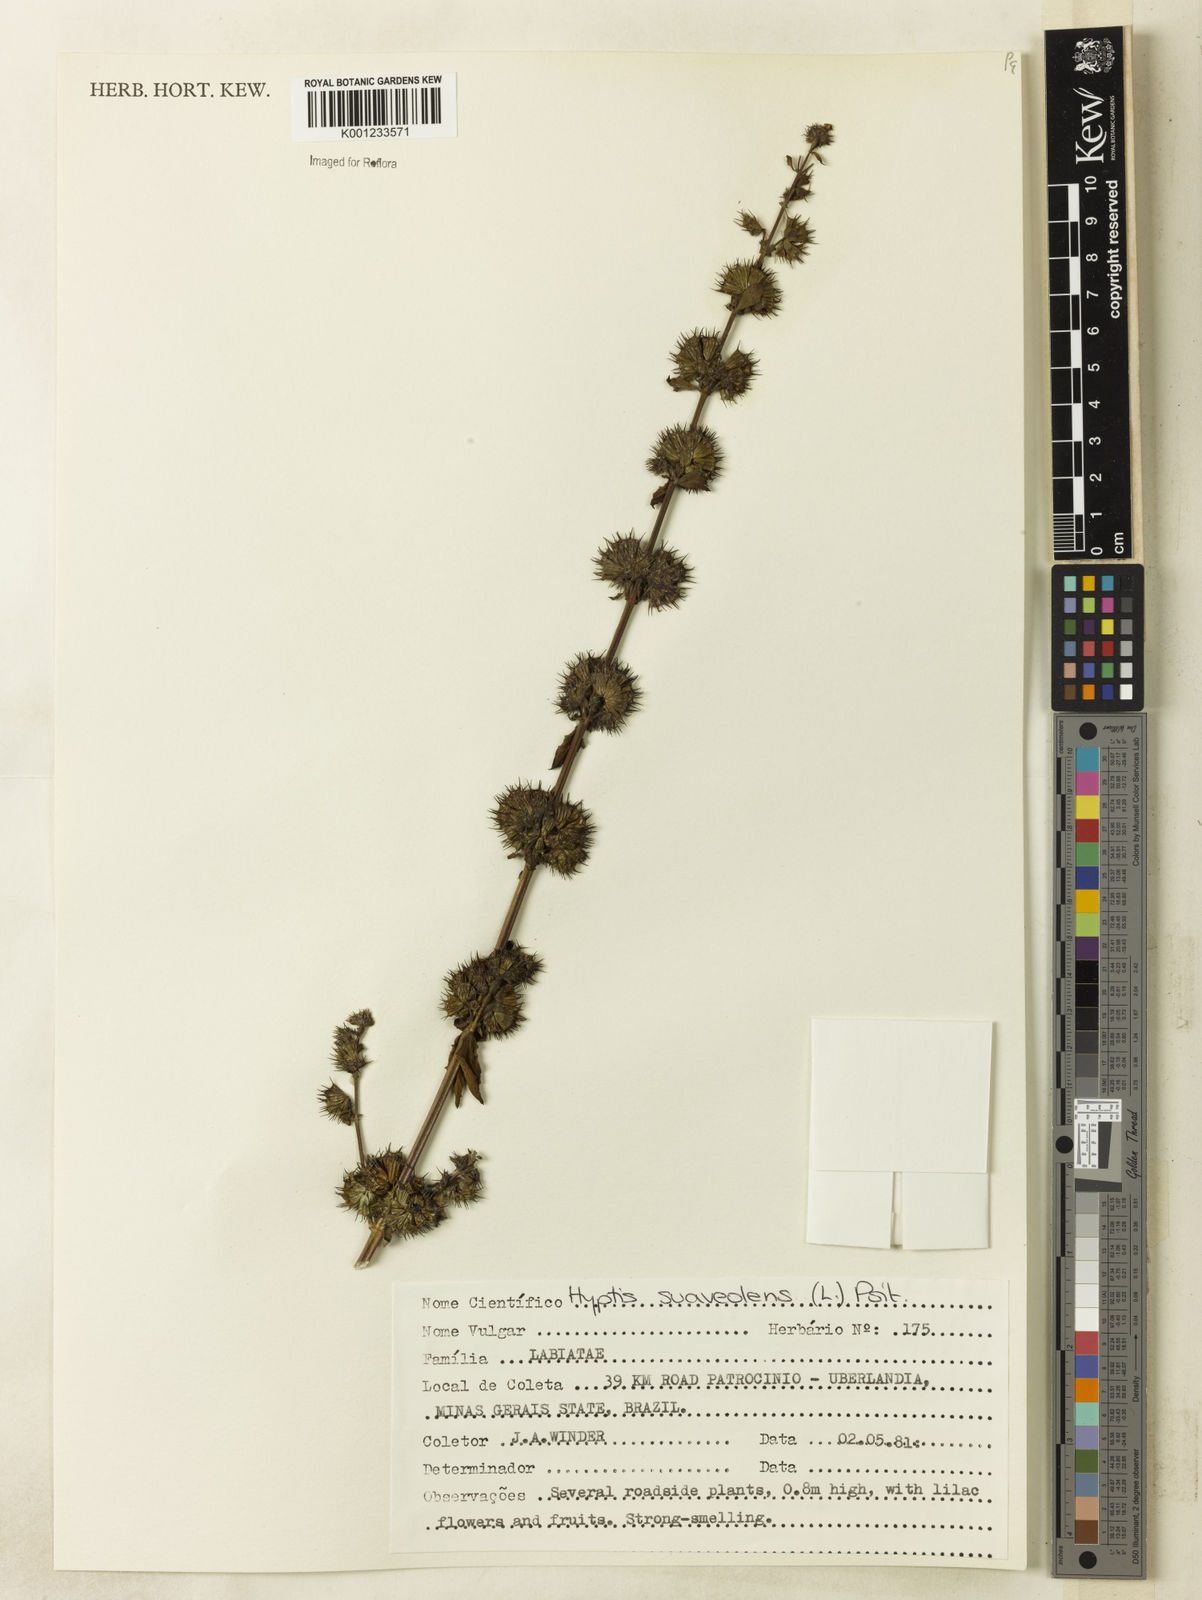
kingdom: Plantae
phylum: Tracheophyta
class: Magnoliopsida
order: Lamiales
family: Lamiaceae
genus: Mesosphaerum
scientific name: Mesosphaerum suaveolens
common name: Pignut
